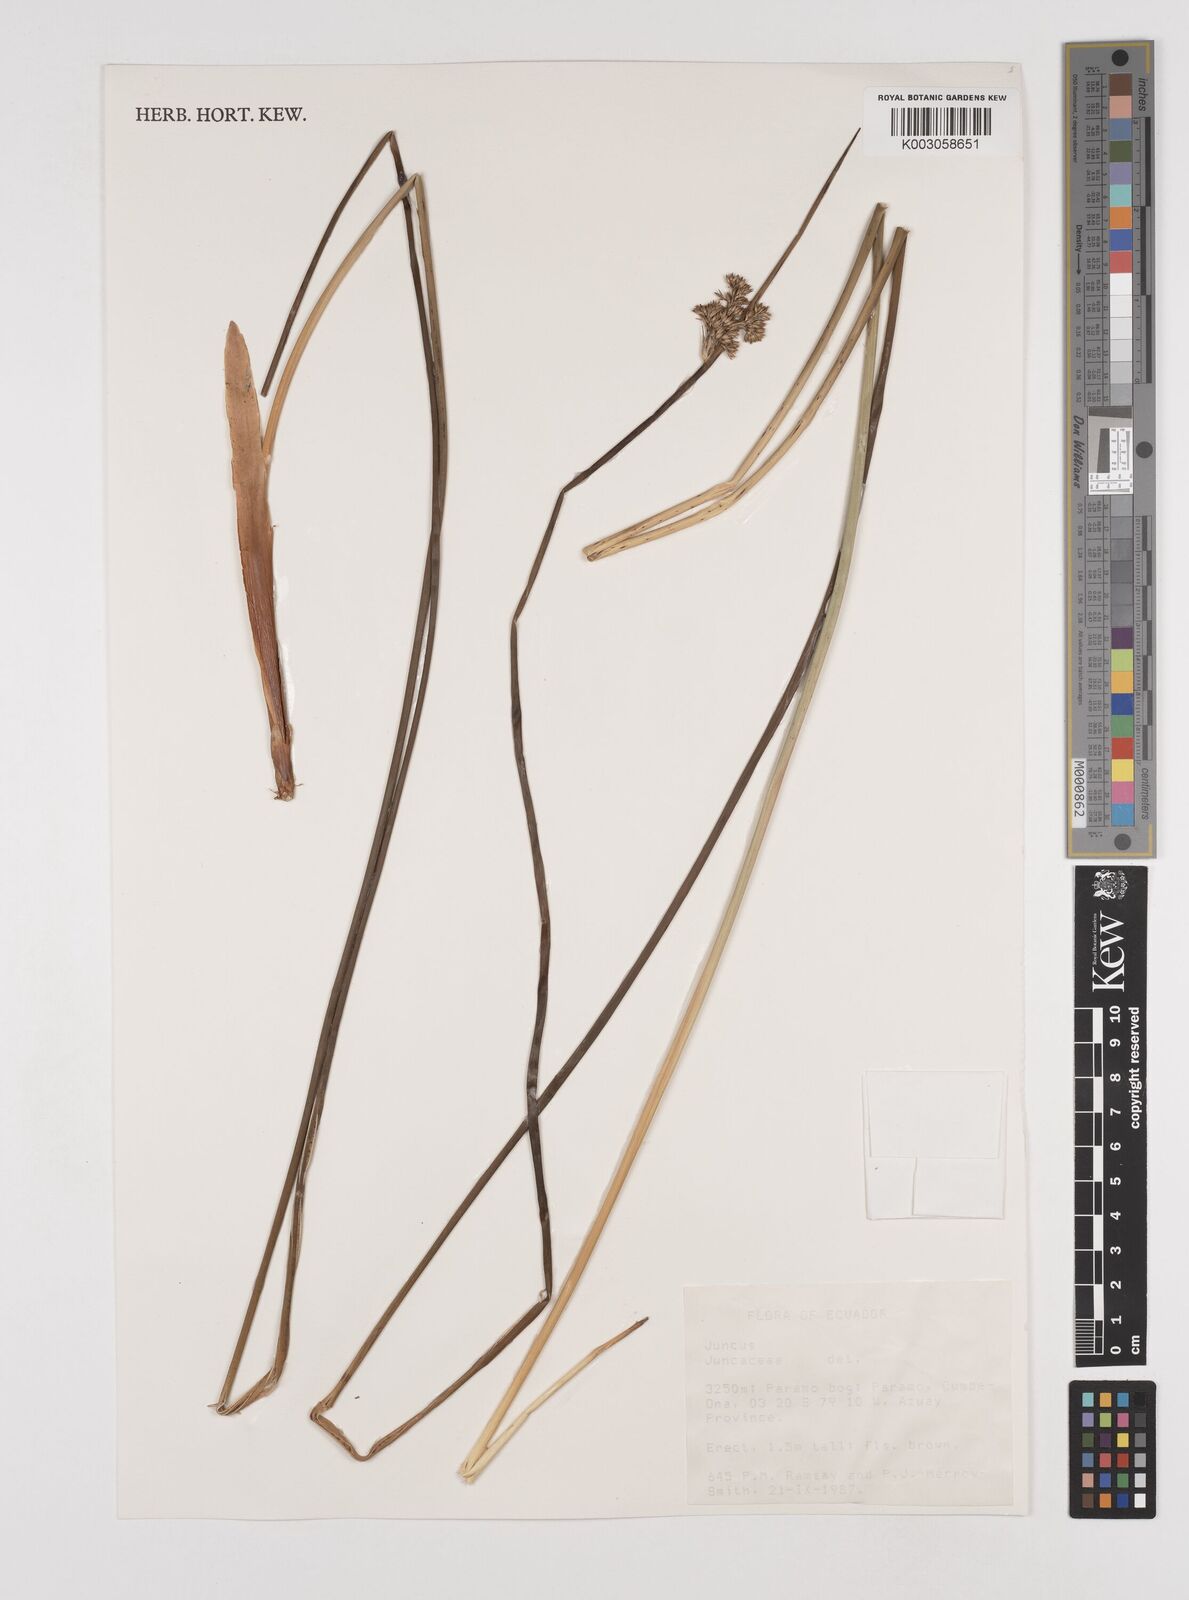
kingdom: Plantae
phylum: Tracheophyta
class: Liliopsida
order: Poales
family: Juncaceae
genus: Juncus
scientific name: Juncus
